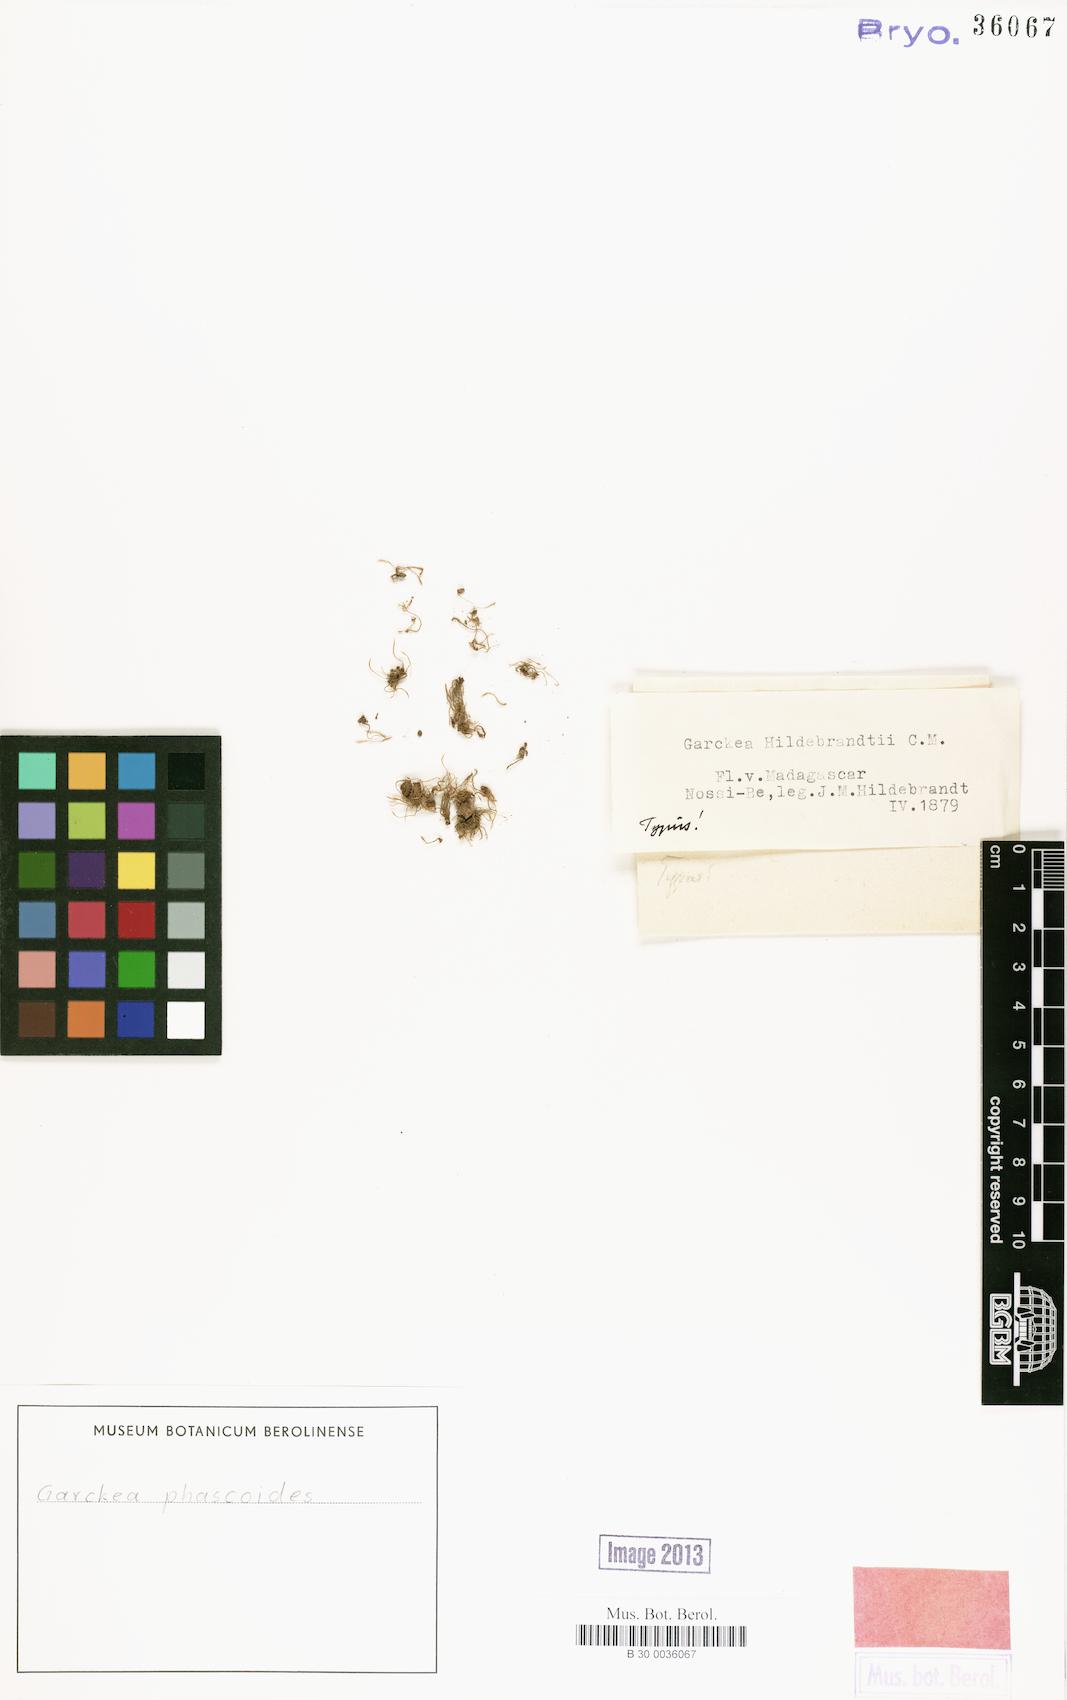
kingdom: Plantae
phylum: Bryophyta
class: Bryopsida
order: Dicranales
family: Dicranellaceae
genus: Garckea
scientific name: Garckea
